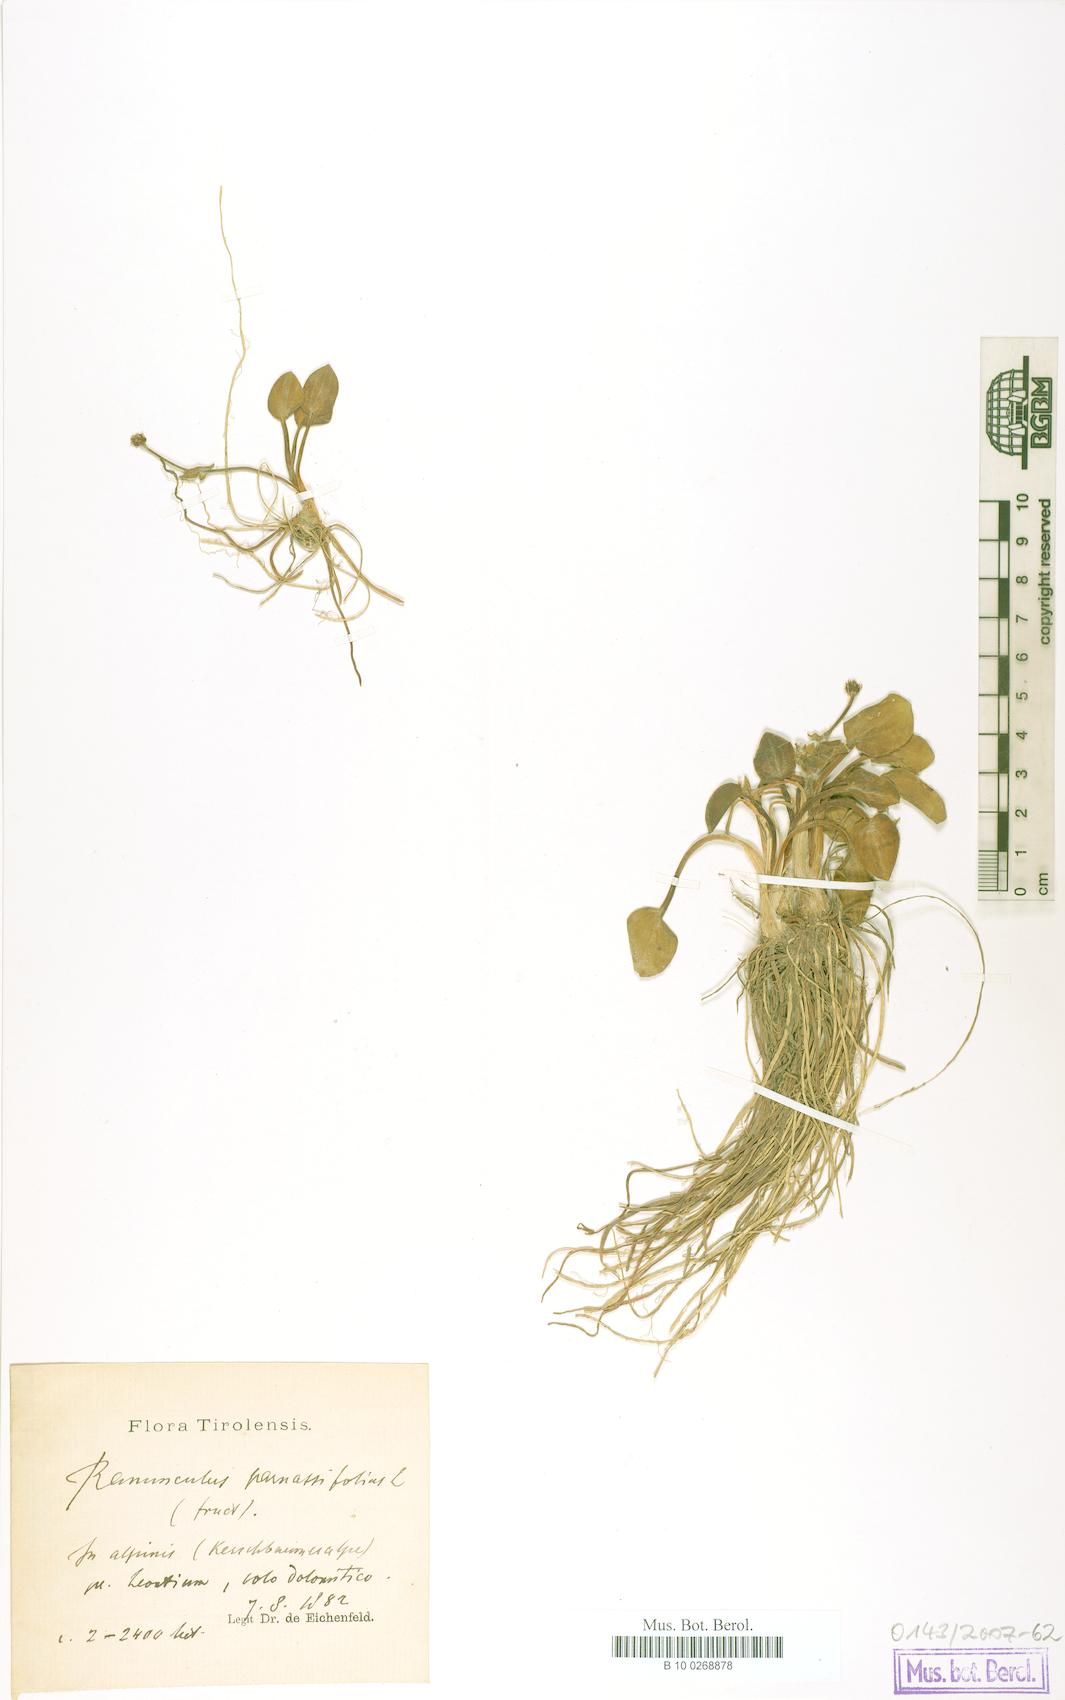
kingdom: Plantae
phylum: Tracheophyta
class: Magnoliopsida
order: Ranunculales
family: Ranunculaceae
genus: Ranunculus
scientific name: Ranunculus parnassiifolius
